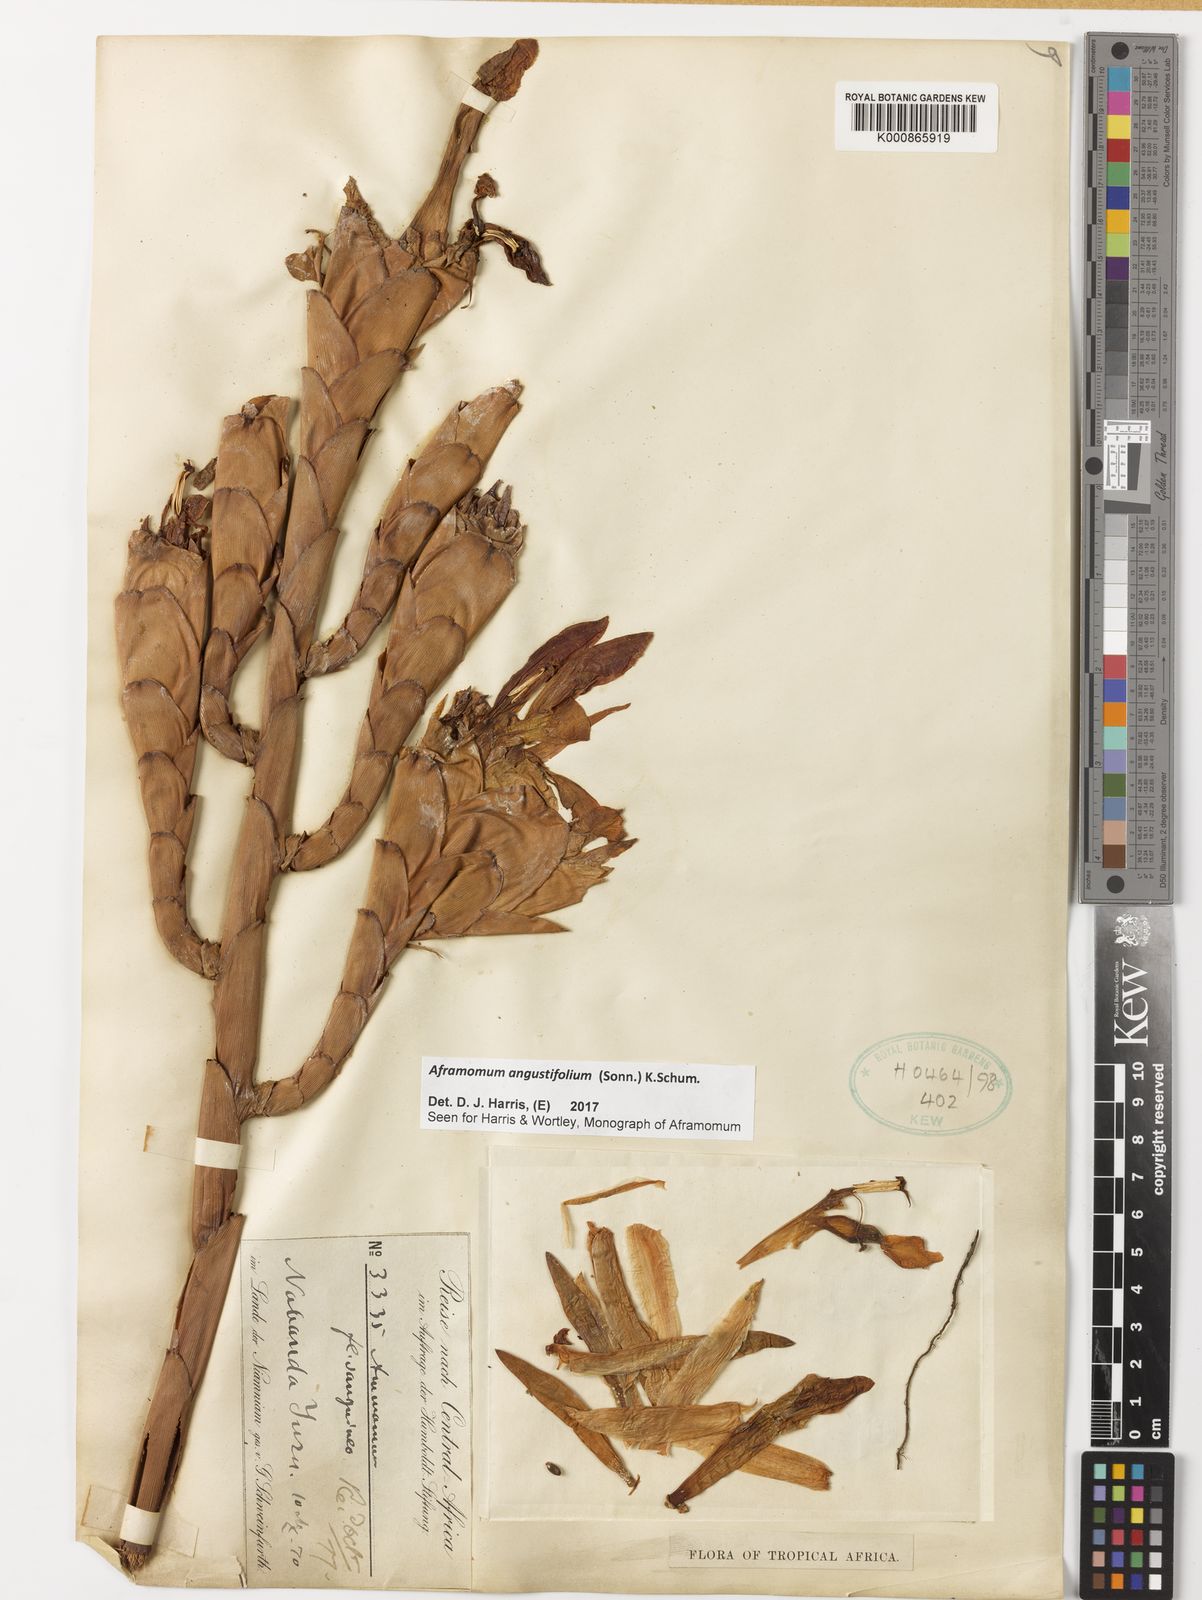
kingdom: Plantae
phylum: Tracheophyta
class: Liliopsida
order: Zingiberales
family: Zingiberaceae
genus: Aframomum
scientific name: Aframomum angustifolium
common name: Guinea grains
